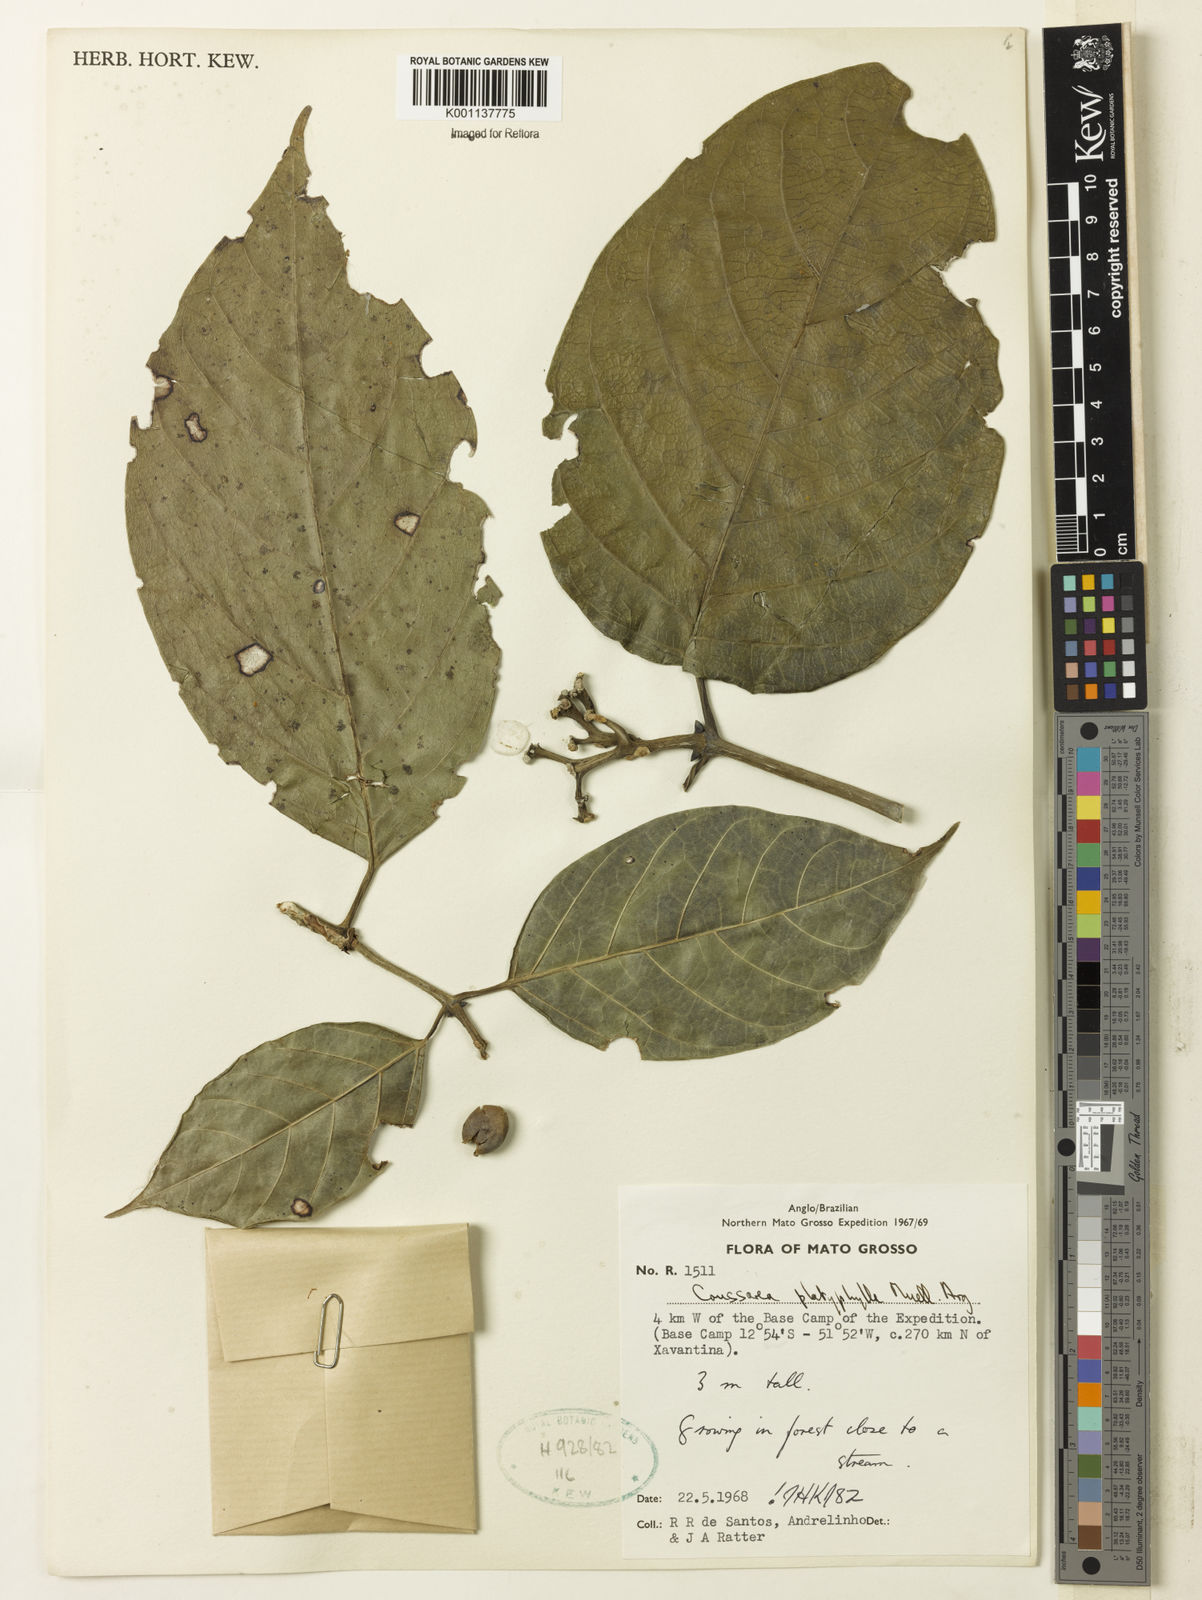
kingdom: Plantae
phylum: Tracheophyta
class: Magnoliopsida
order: Gentianales
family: Rubiaceae
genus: Coussarea
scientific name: Coussarea
